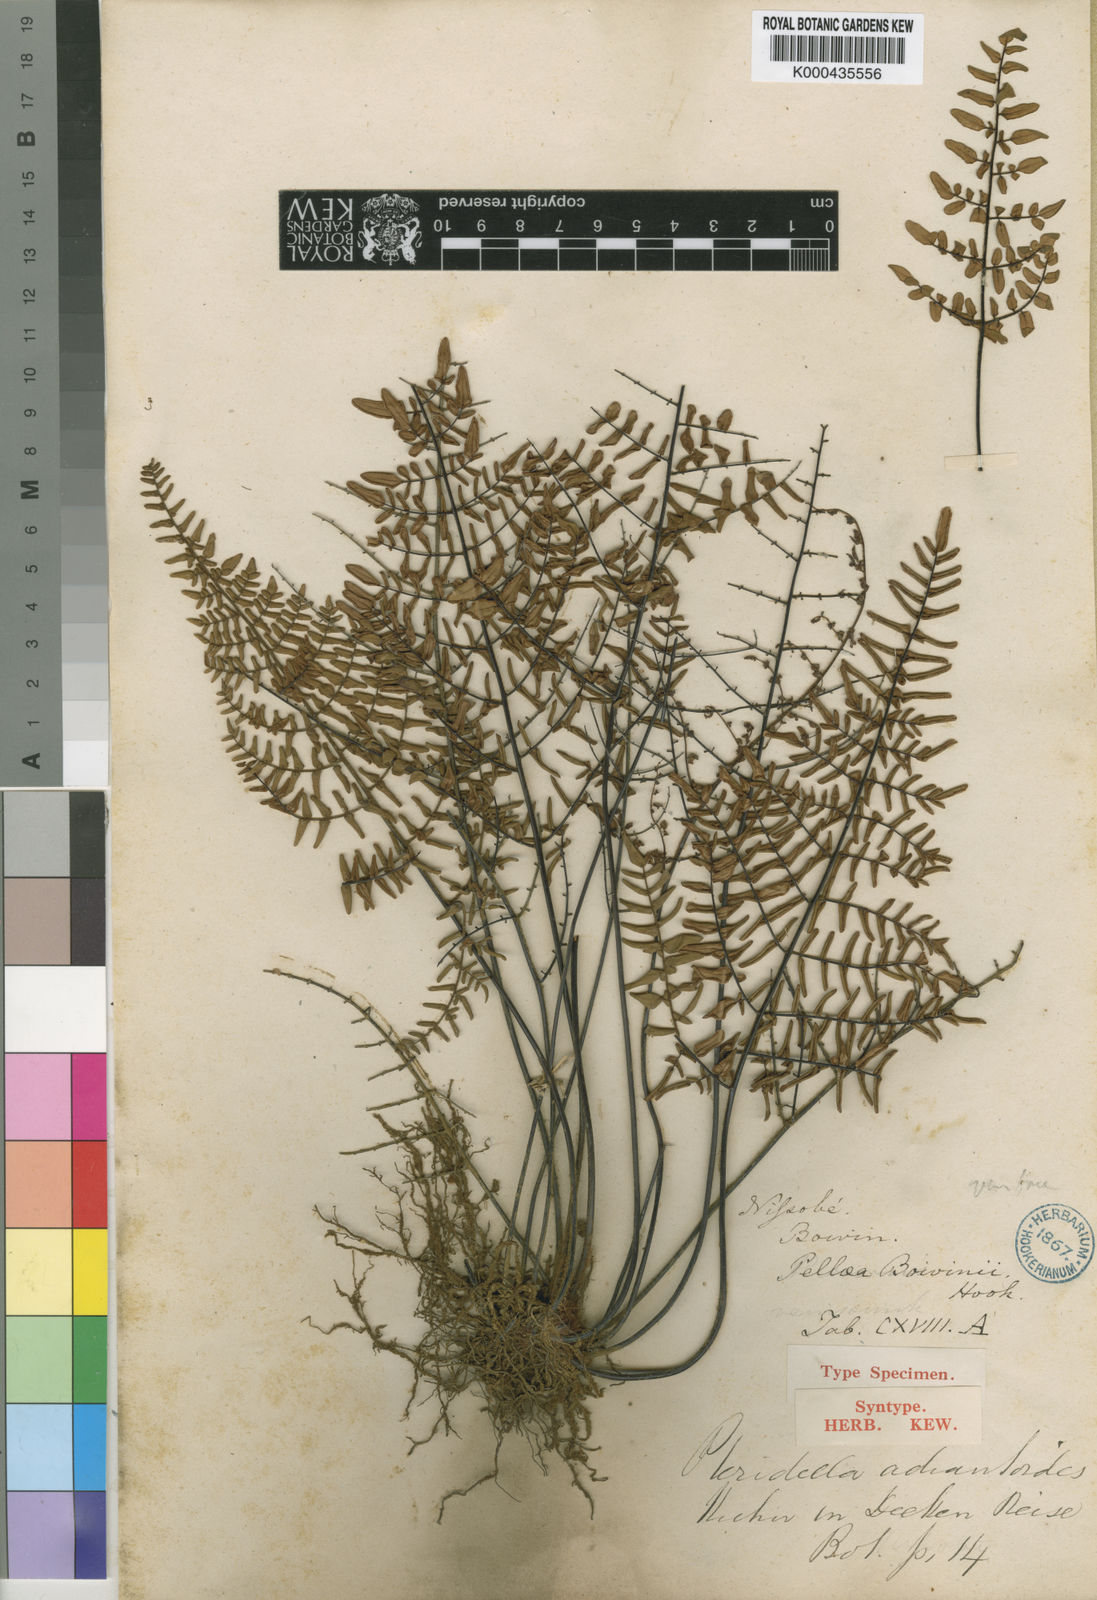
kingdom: Plantae
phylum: Tracheophyta
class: Polypodiopsida
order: Polypodiales
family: Pteridaceae
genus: Pellaea
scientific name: Pellaea boivinii
